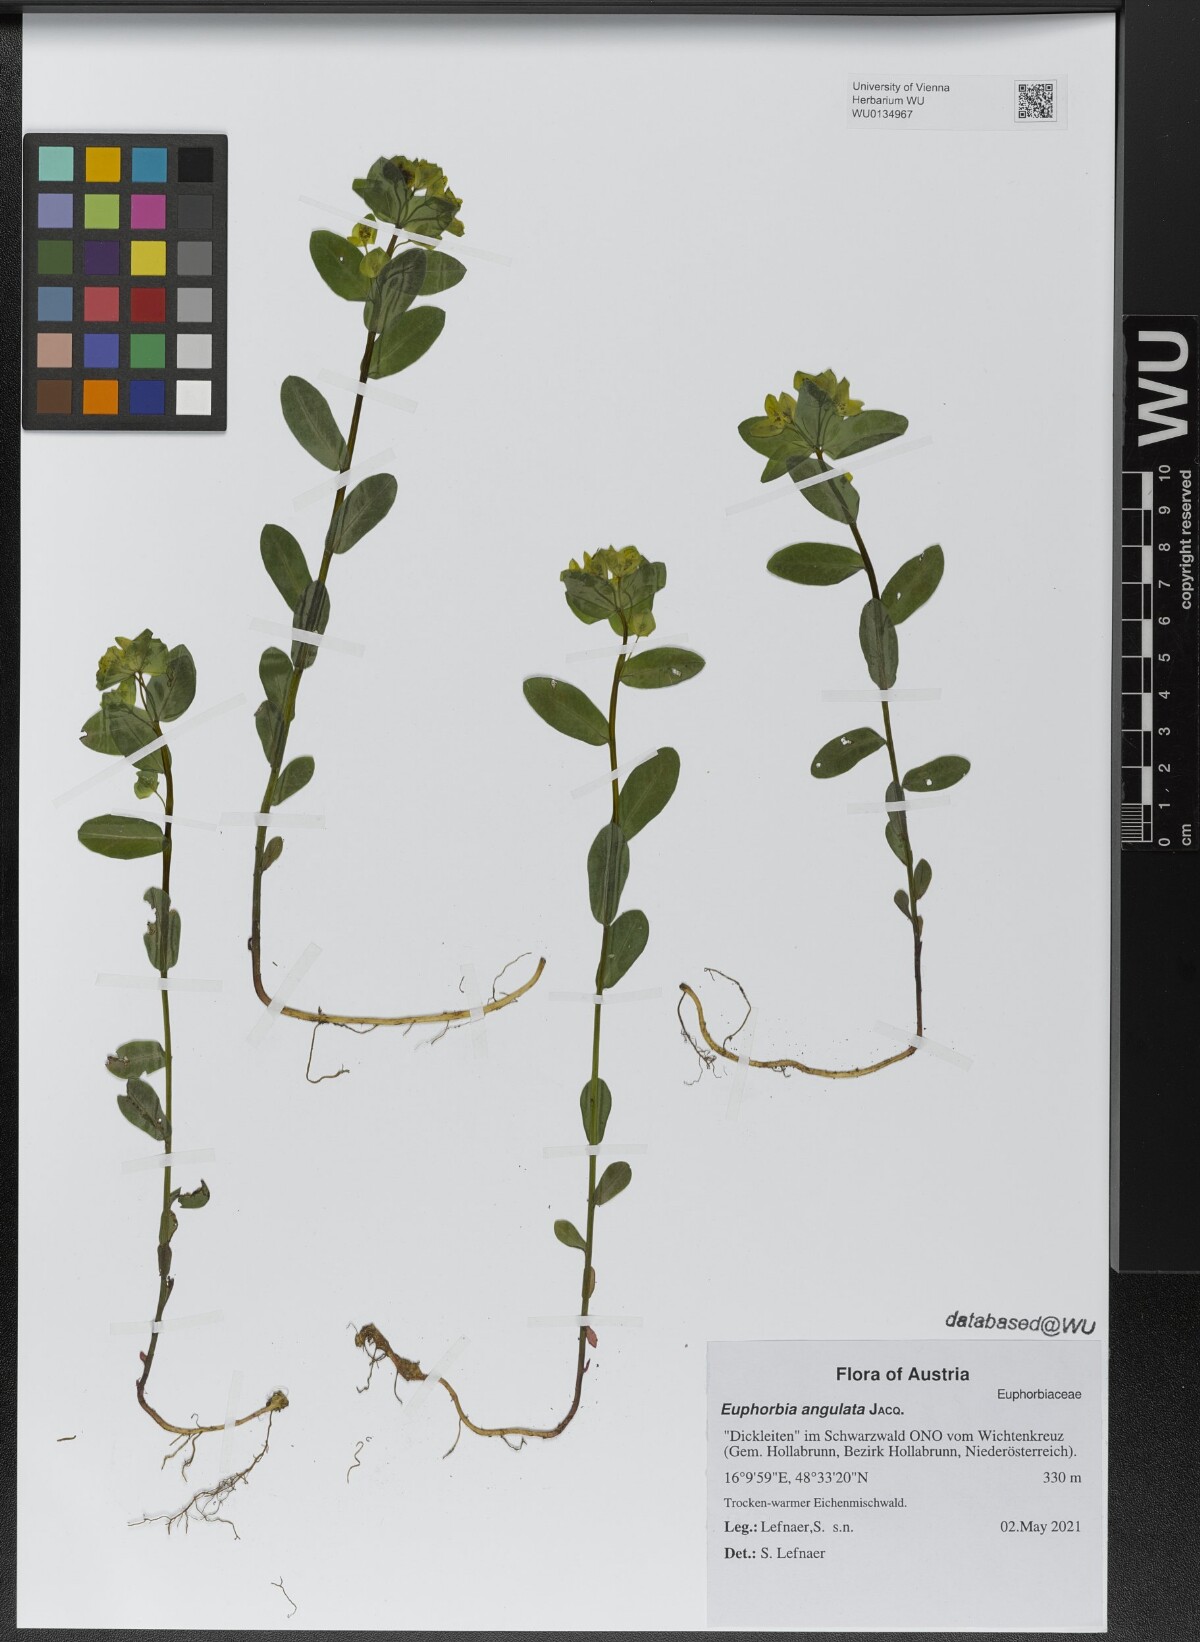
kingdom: Plantae
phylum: Tracheophyta
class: Magnoliopsida
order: Malpighiales
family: Euphorbiaceae
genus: Euphorbia
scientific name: Euphorbia angulata
